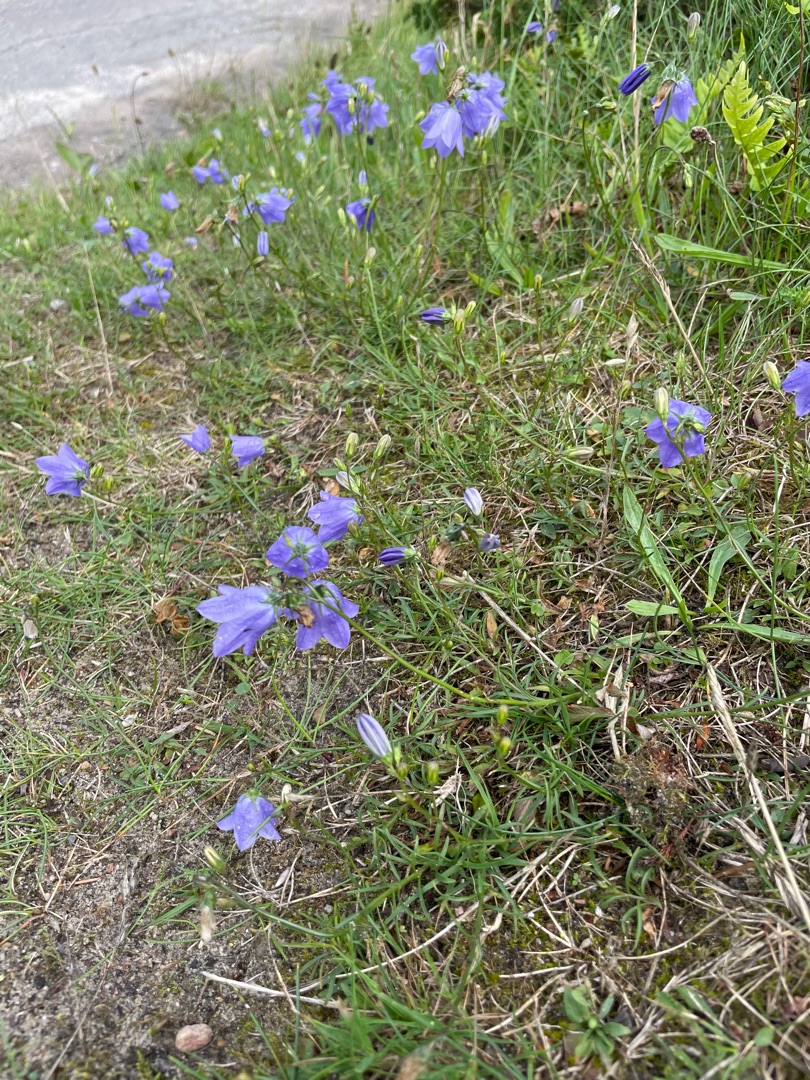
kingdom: Plantae
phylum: Tracheophyta
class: Magnoliopsida
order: Asterales
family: Campanulaceae
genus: Campanula
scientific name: Campanula rotundifolia
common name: Liden klokke
